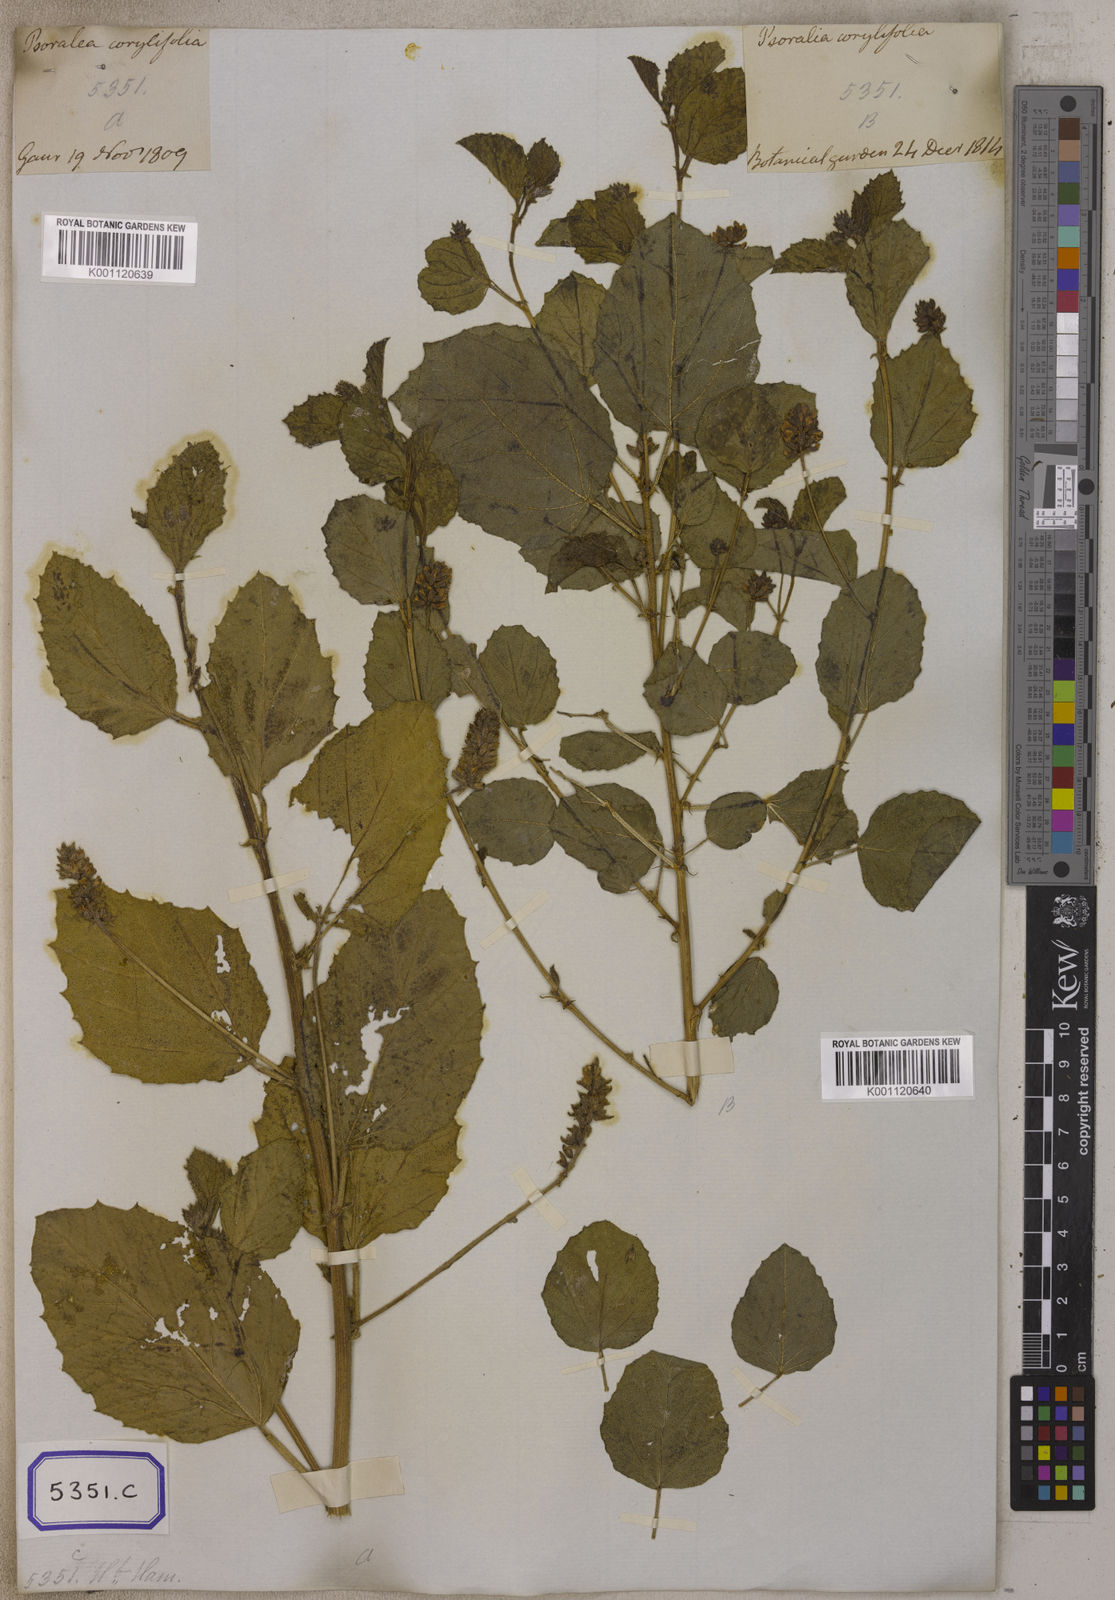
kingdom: Plantae
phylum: Tracheophyta
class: Magnoliopsida
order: Fabales
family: Fabaceae
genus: Cullen
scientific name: Cullen corylifolium
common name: Malaysian scurfpea
